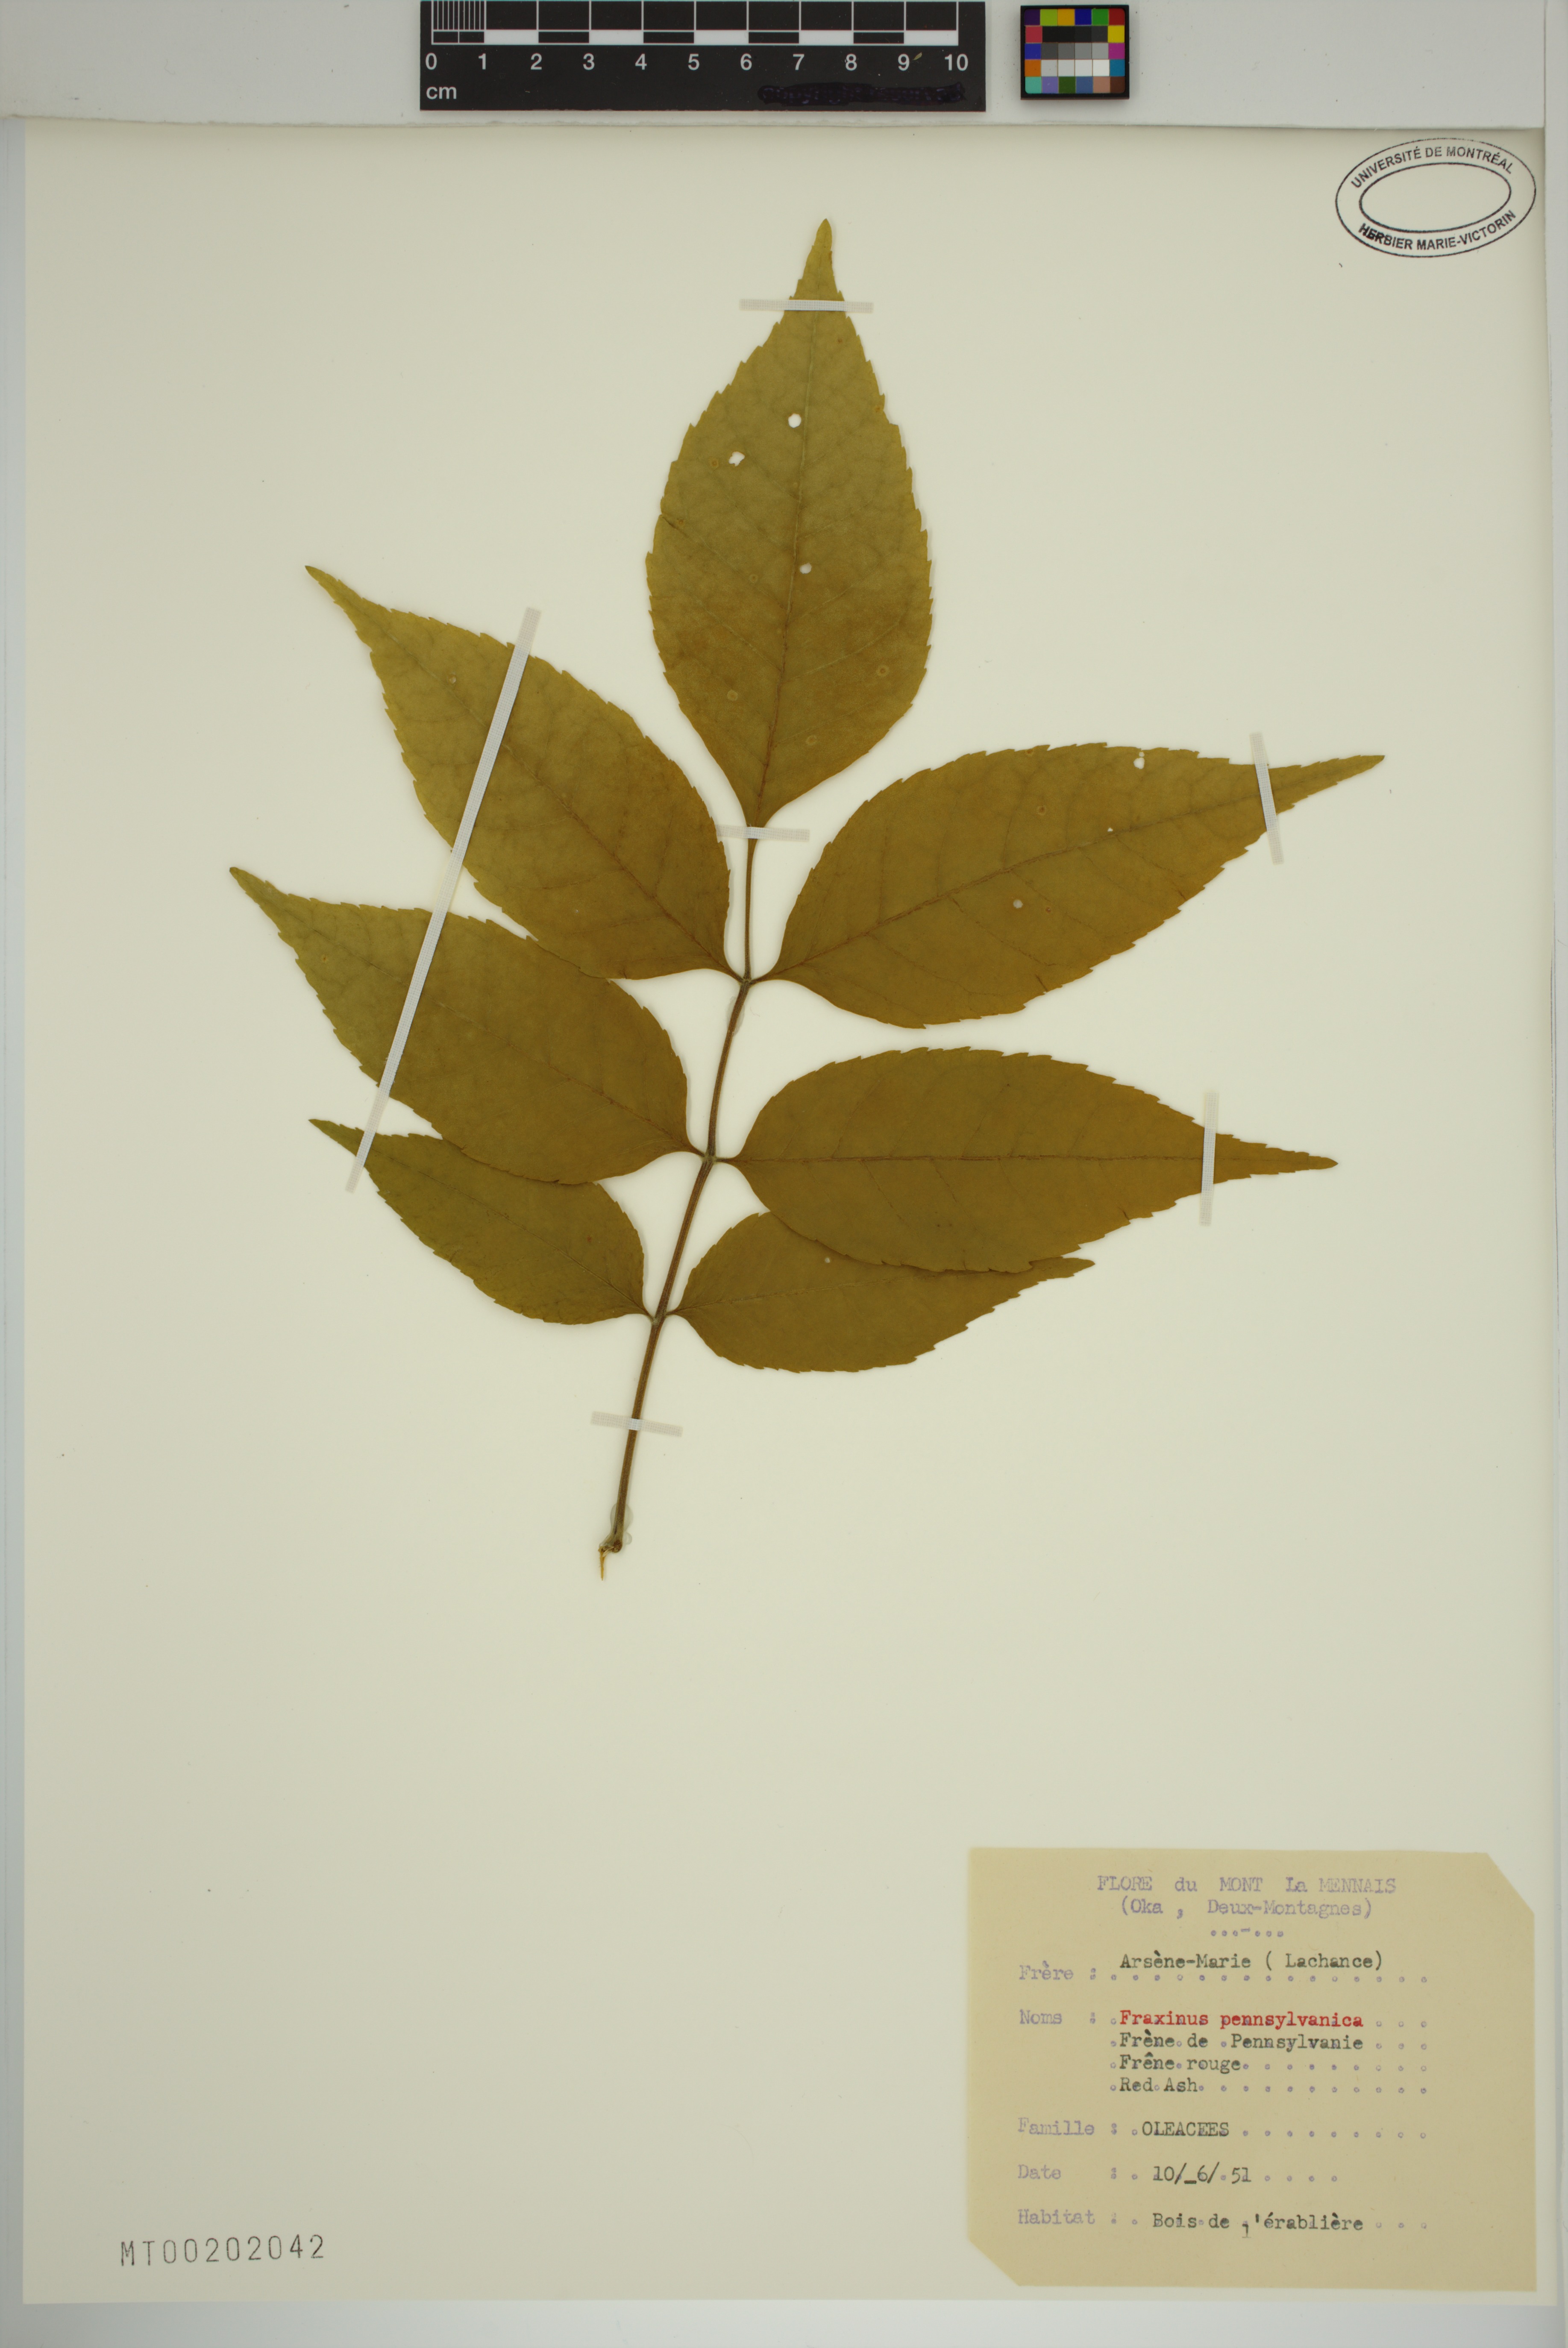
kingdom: Plantae
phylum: Tracheophyta
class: Magnoliopsida
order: Lamiales
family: Oleaceae
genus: Fraxinus
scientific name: Fraxinus pennsylvanica
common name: Green ash
